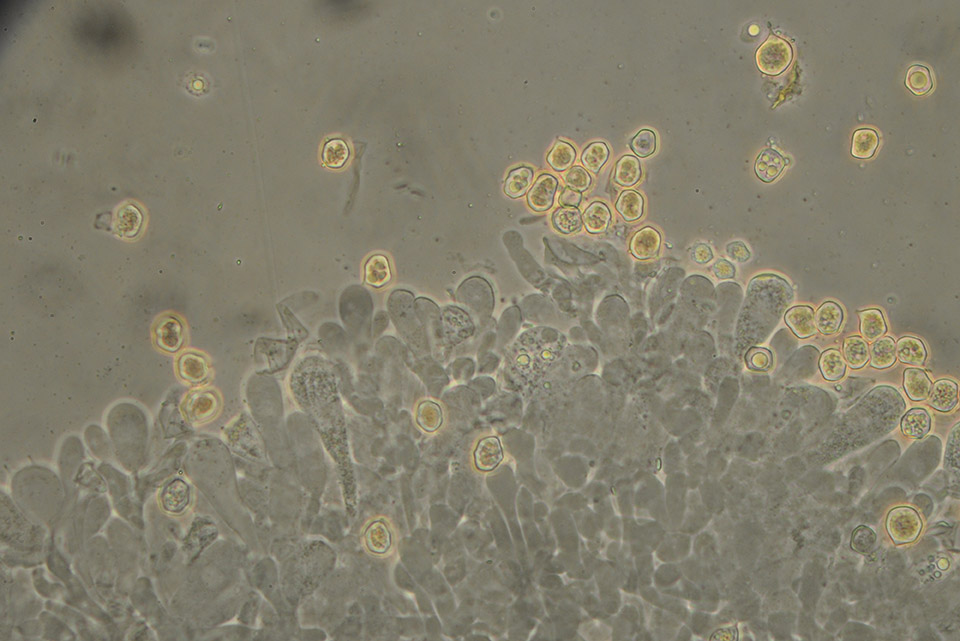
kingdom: Fungi
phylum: Basidiomycota
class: Agaricomycetes
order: Agaricales
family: Entolomataceae
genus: Entoloma
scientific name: Entoloma
